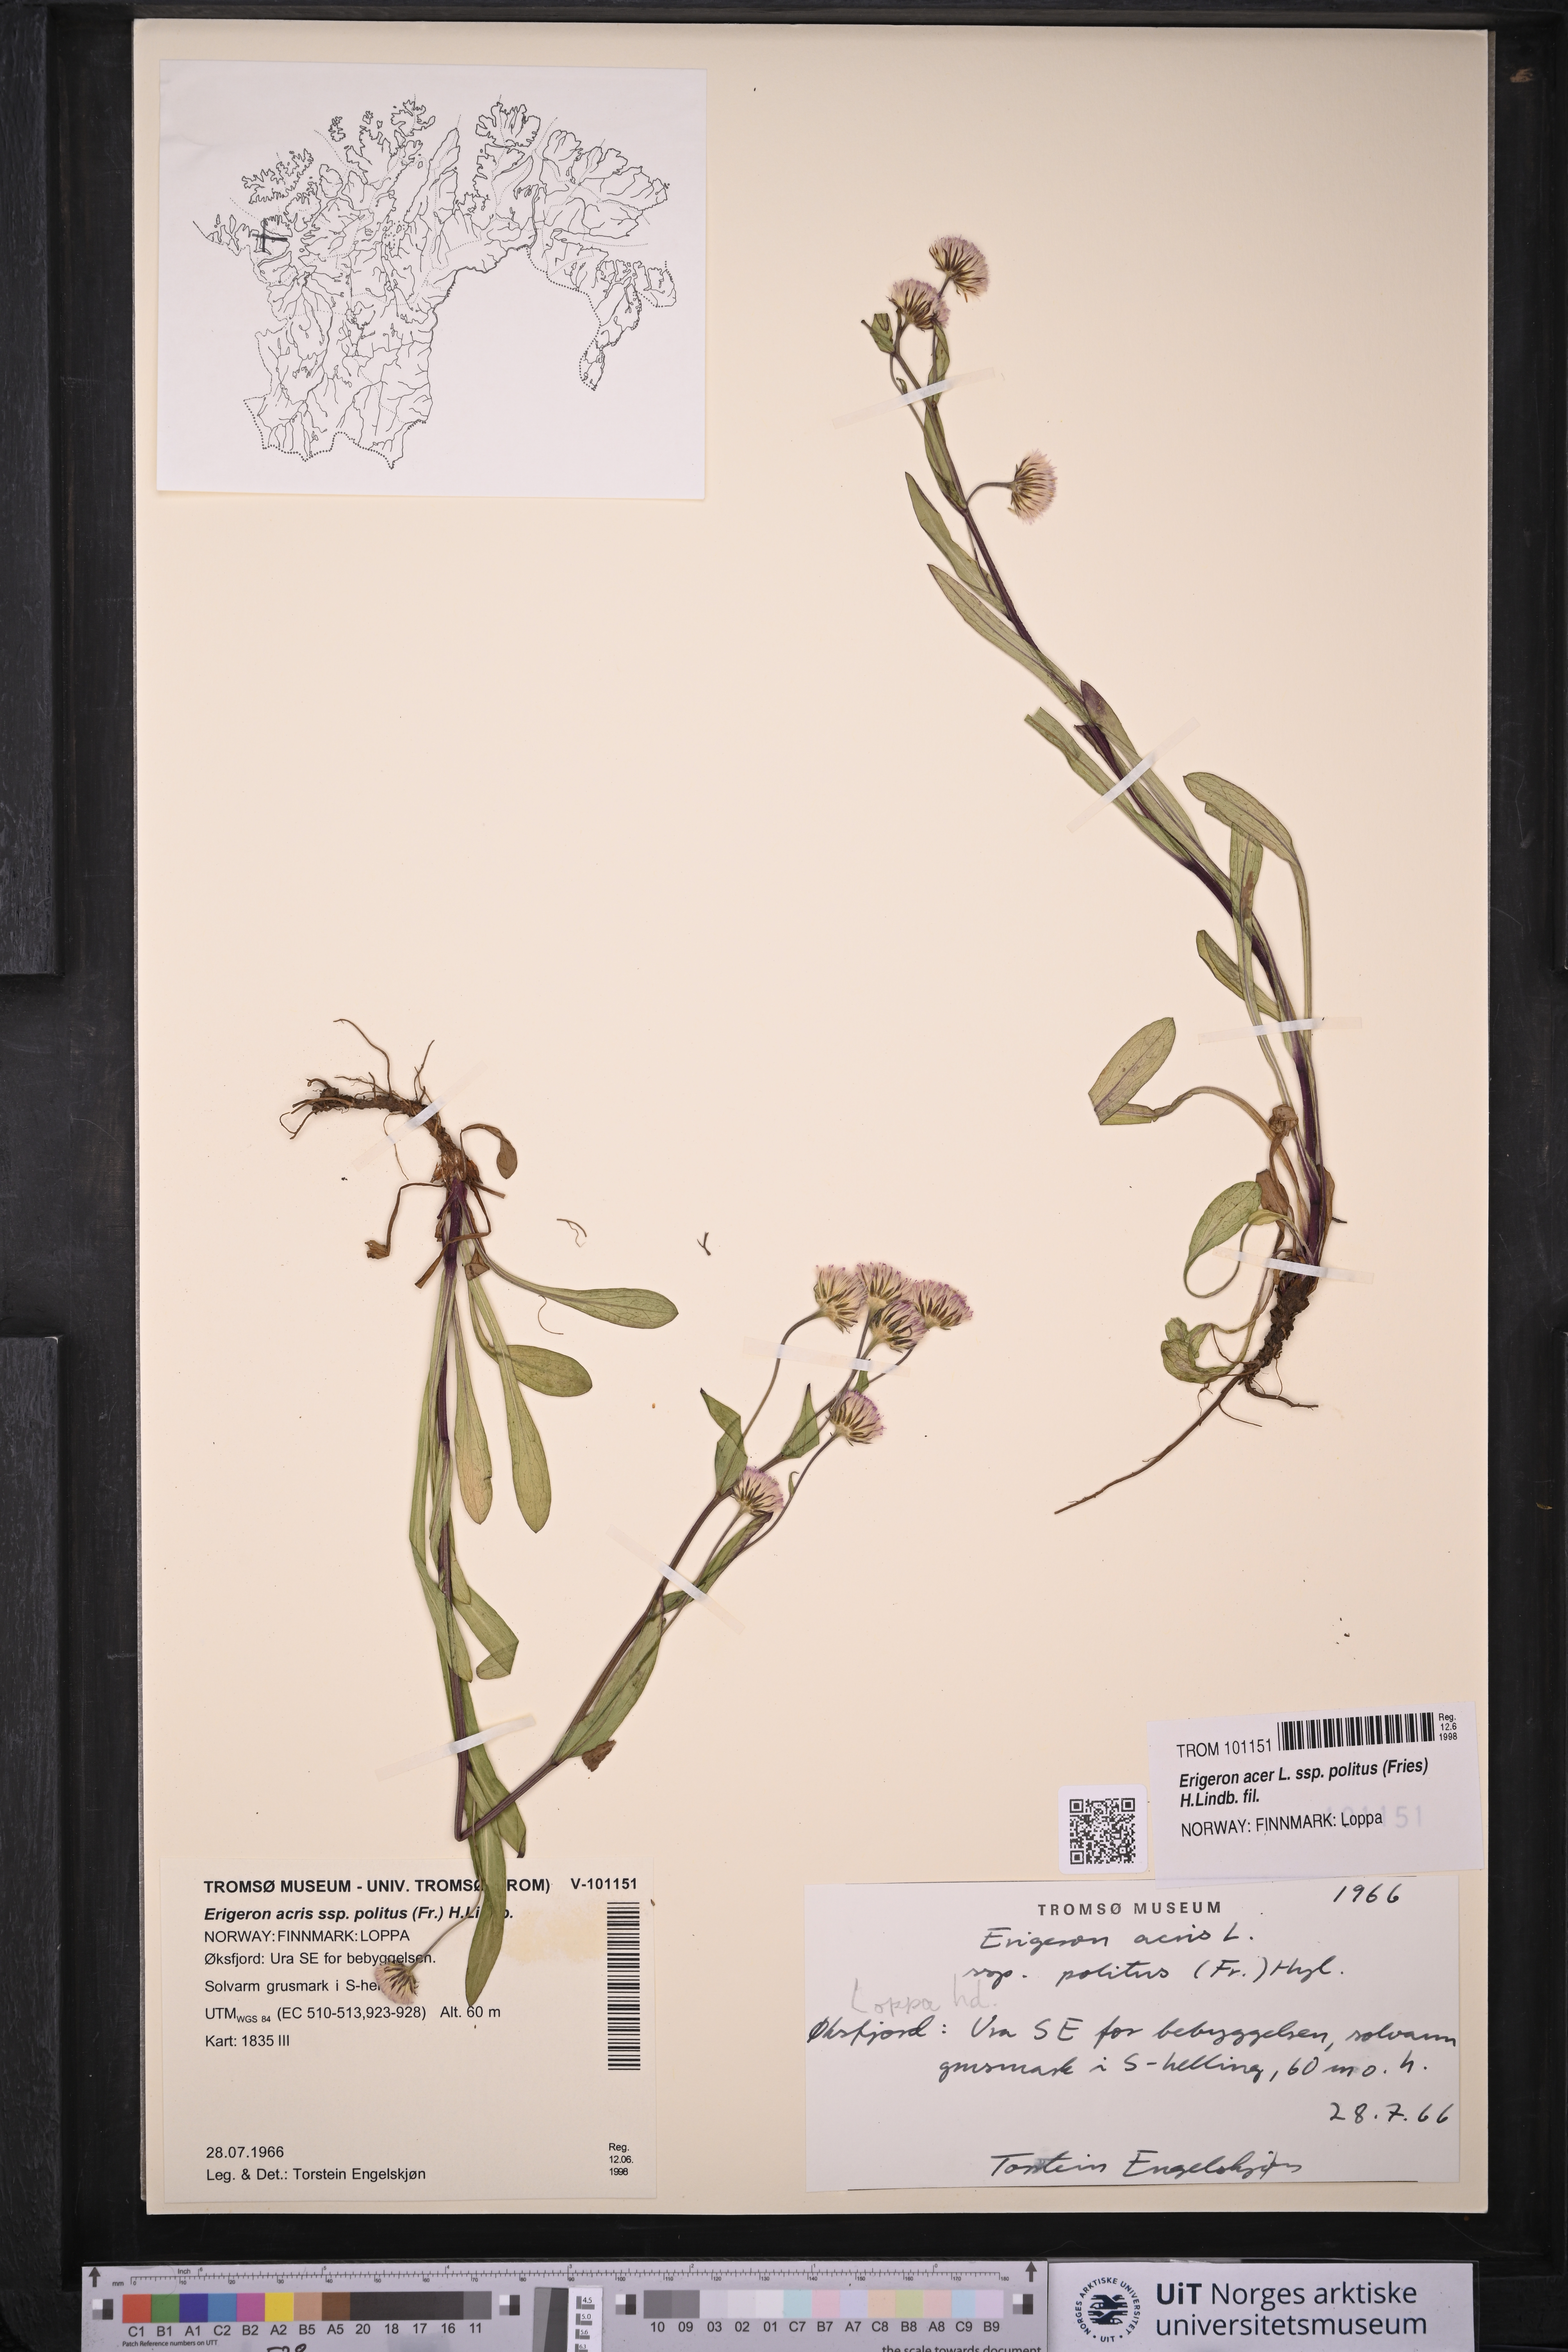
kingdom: Plantae
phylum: Tracheophyta
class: Magnoliopsida
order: Asterales
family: Asteraceae
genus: Erigeron
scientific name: Erigeron politus
